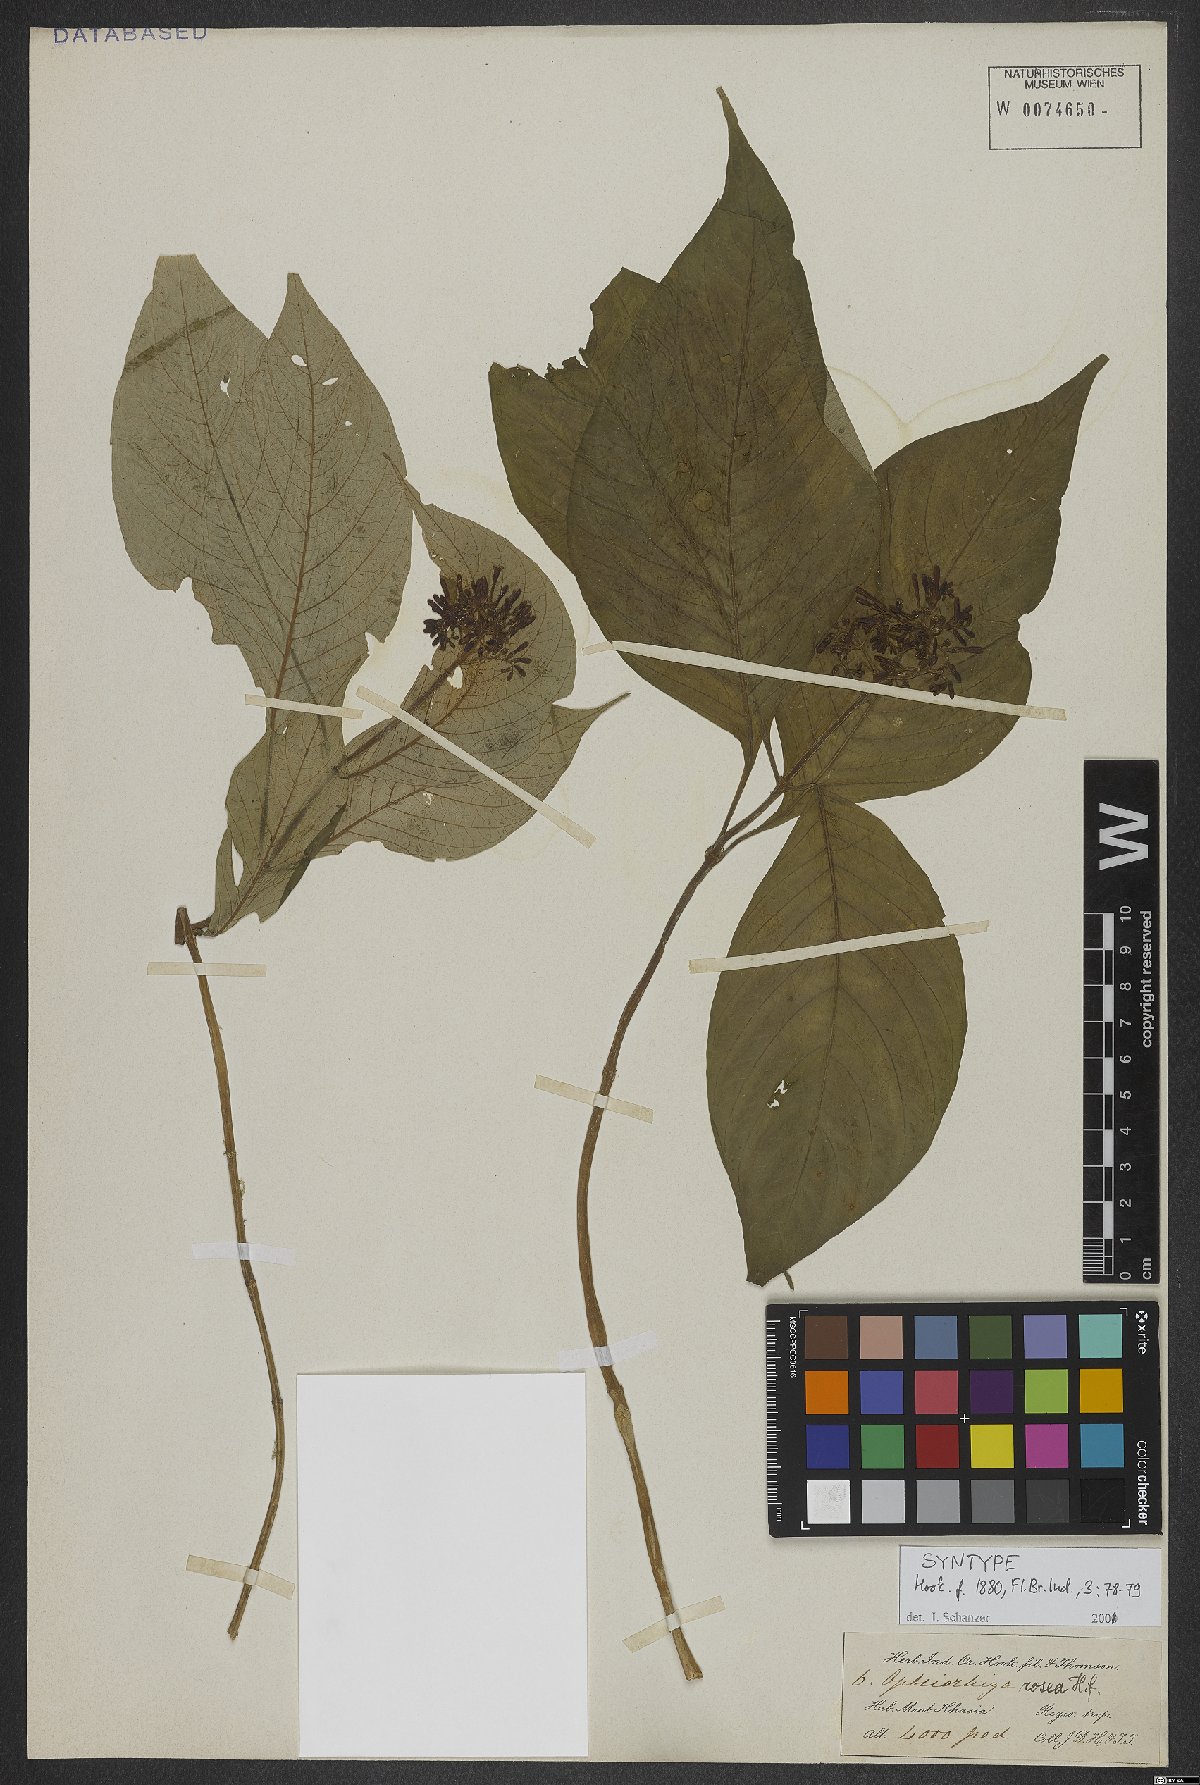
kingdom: Plantae
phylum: Tracheophyta
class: Magnoliopsida
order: Gentianales
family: Rubiaceae
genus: Ophiorrhiza
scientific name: Ophiorrhiza rosea
